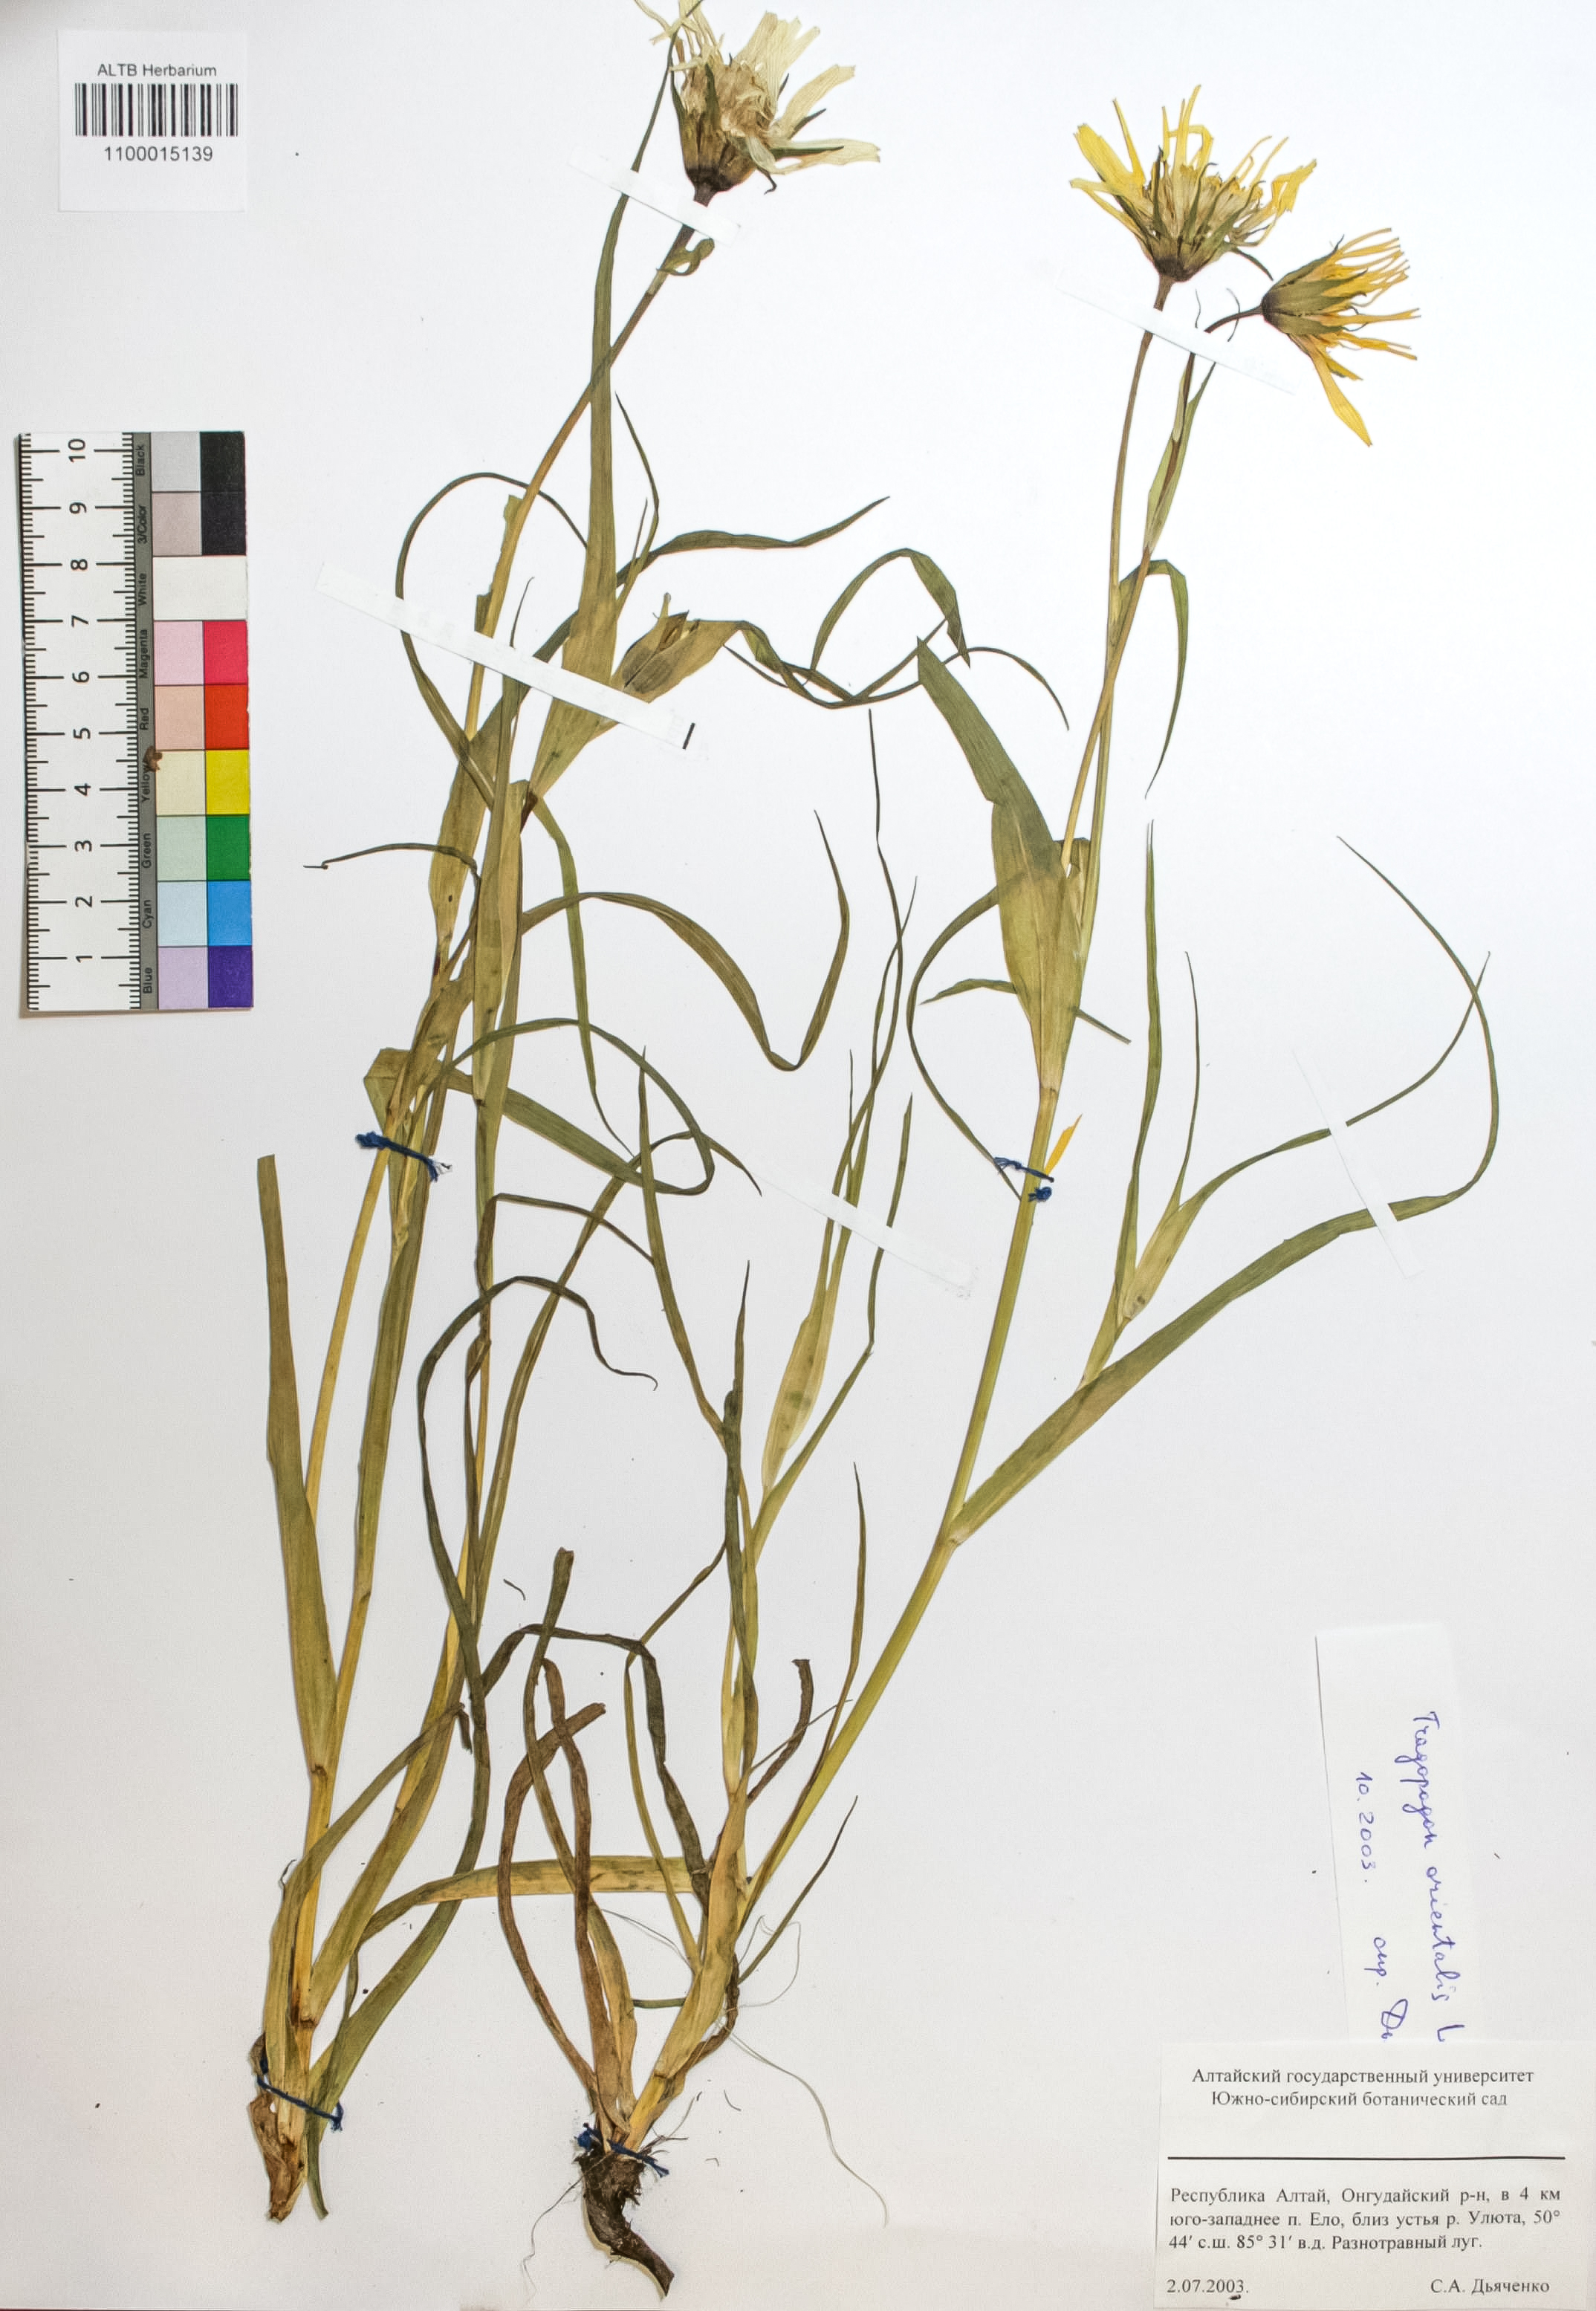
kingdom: Plantae
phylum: Tracheophyta
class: Magnoliopsida
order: Asterales
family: Asteraceae
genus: Tragopogon
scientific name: Tragopogon orientalis
